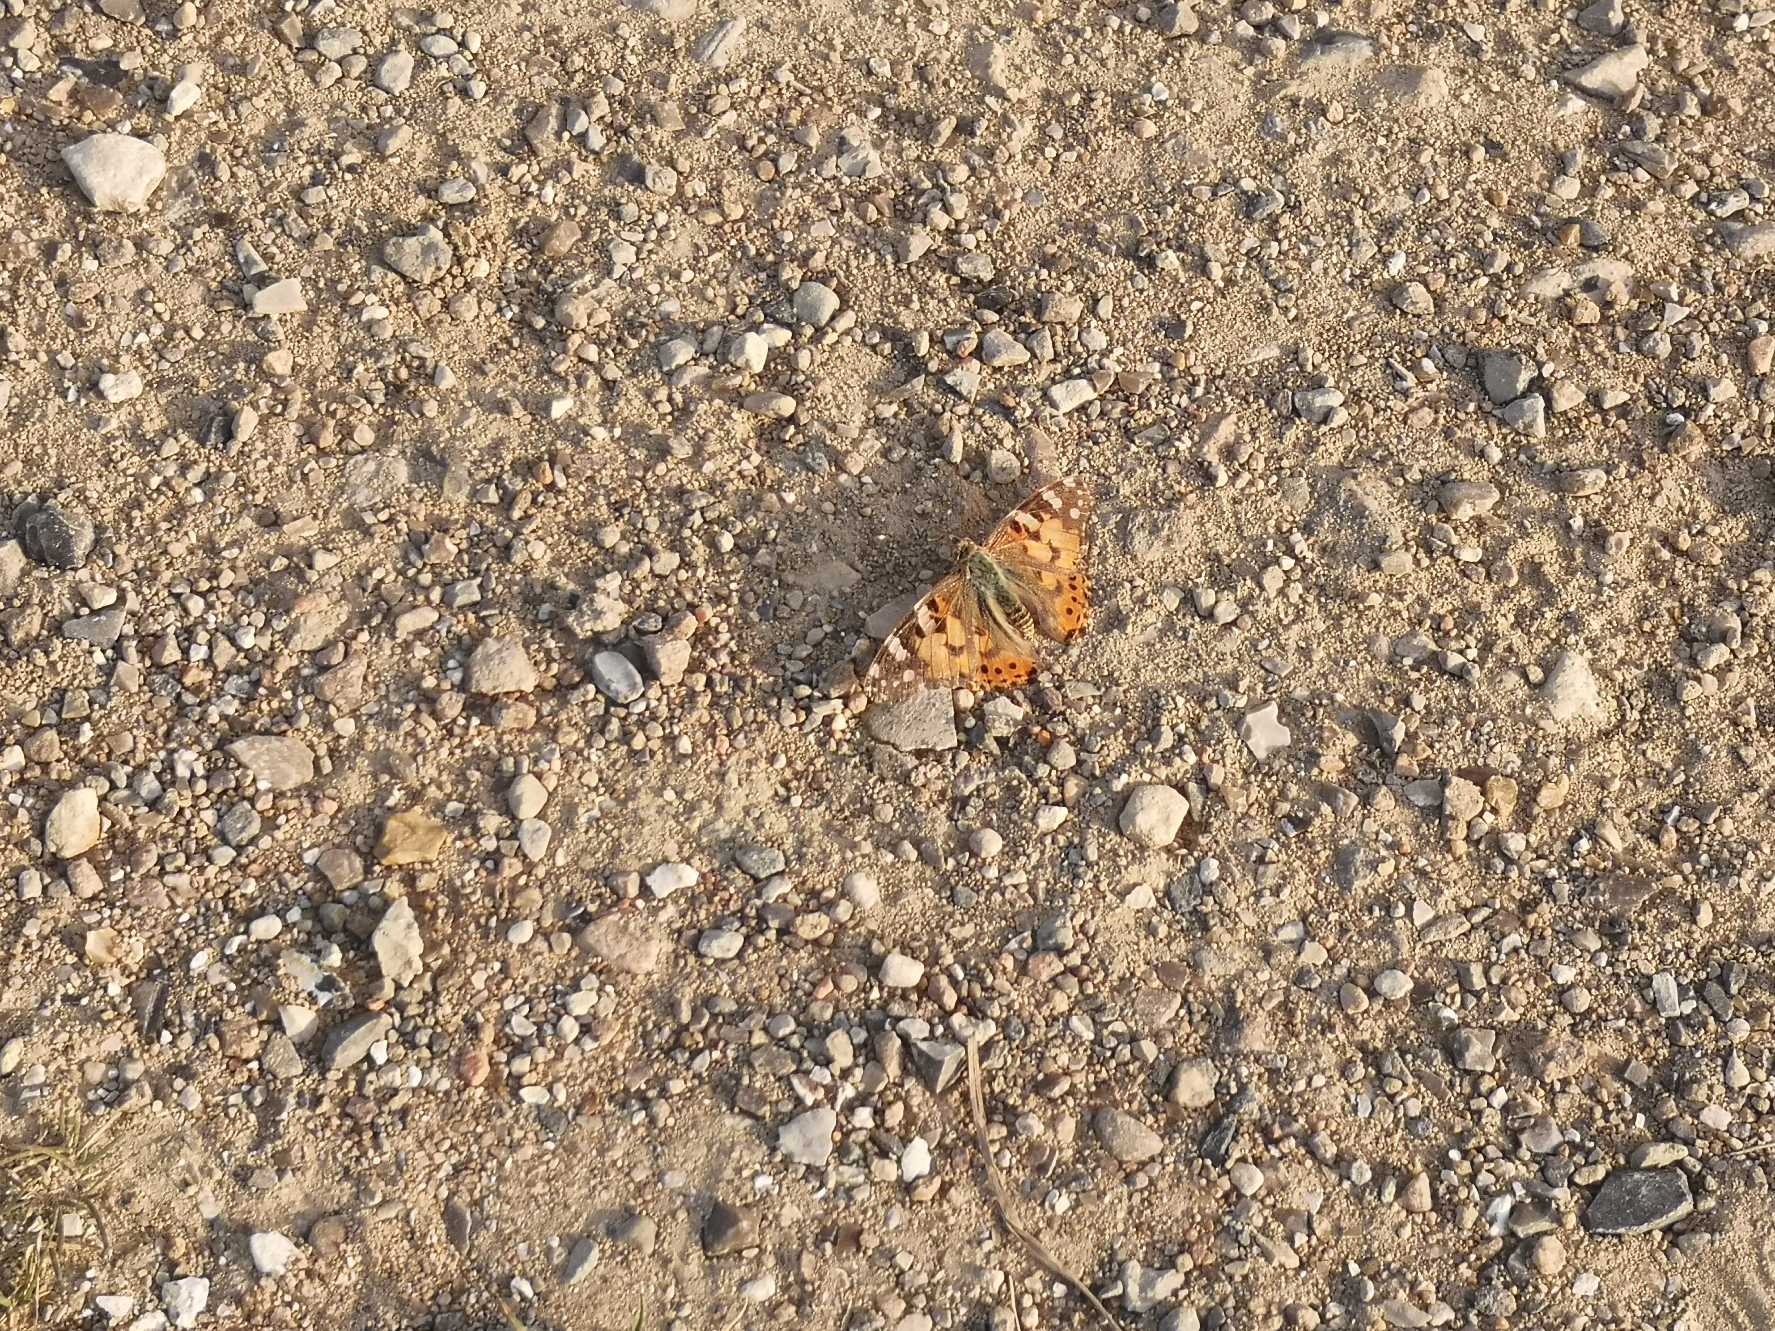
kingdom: Animalia
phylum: Arthropoda
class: Insecta
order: Lepidoptera
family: Nymphalidae
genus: Vanessa
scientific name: Vanessa cardui
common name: Tidselsommerfugl
